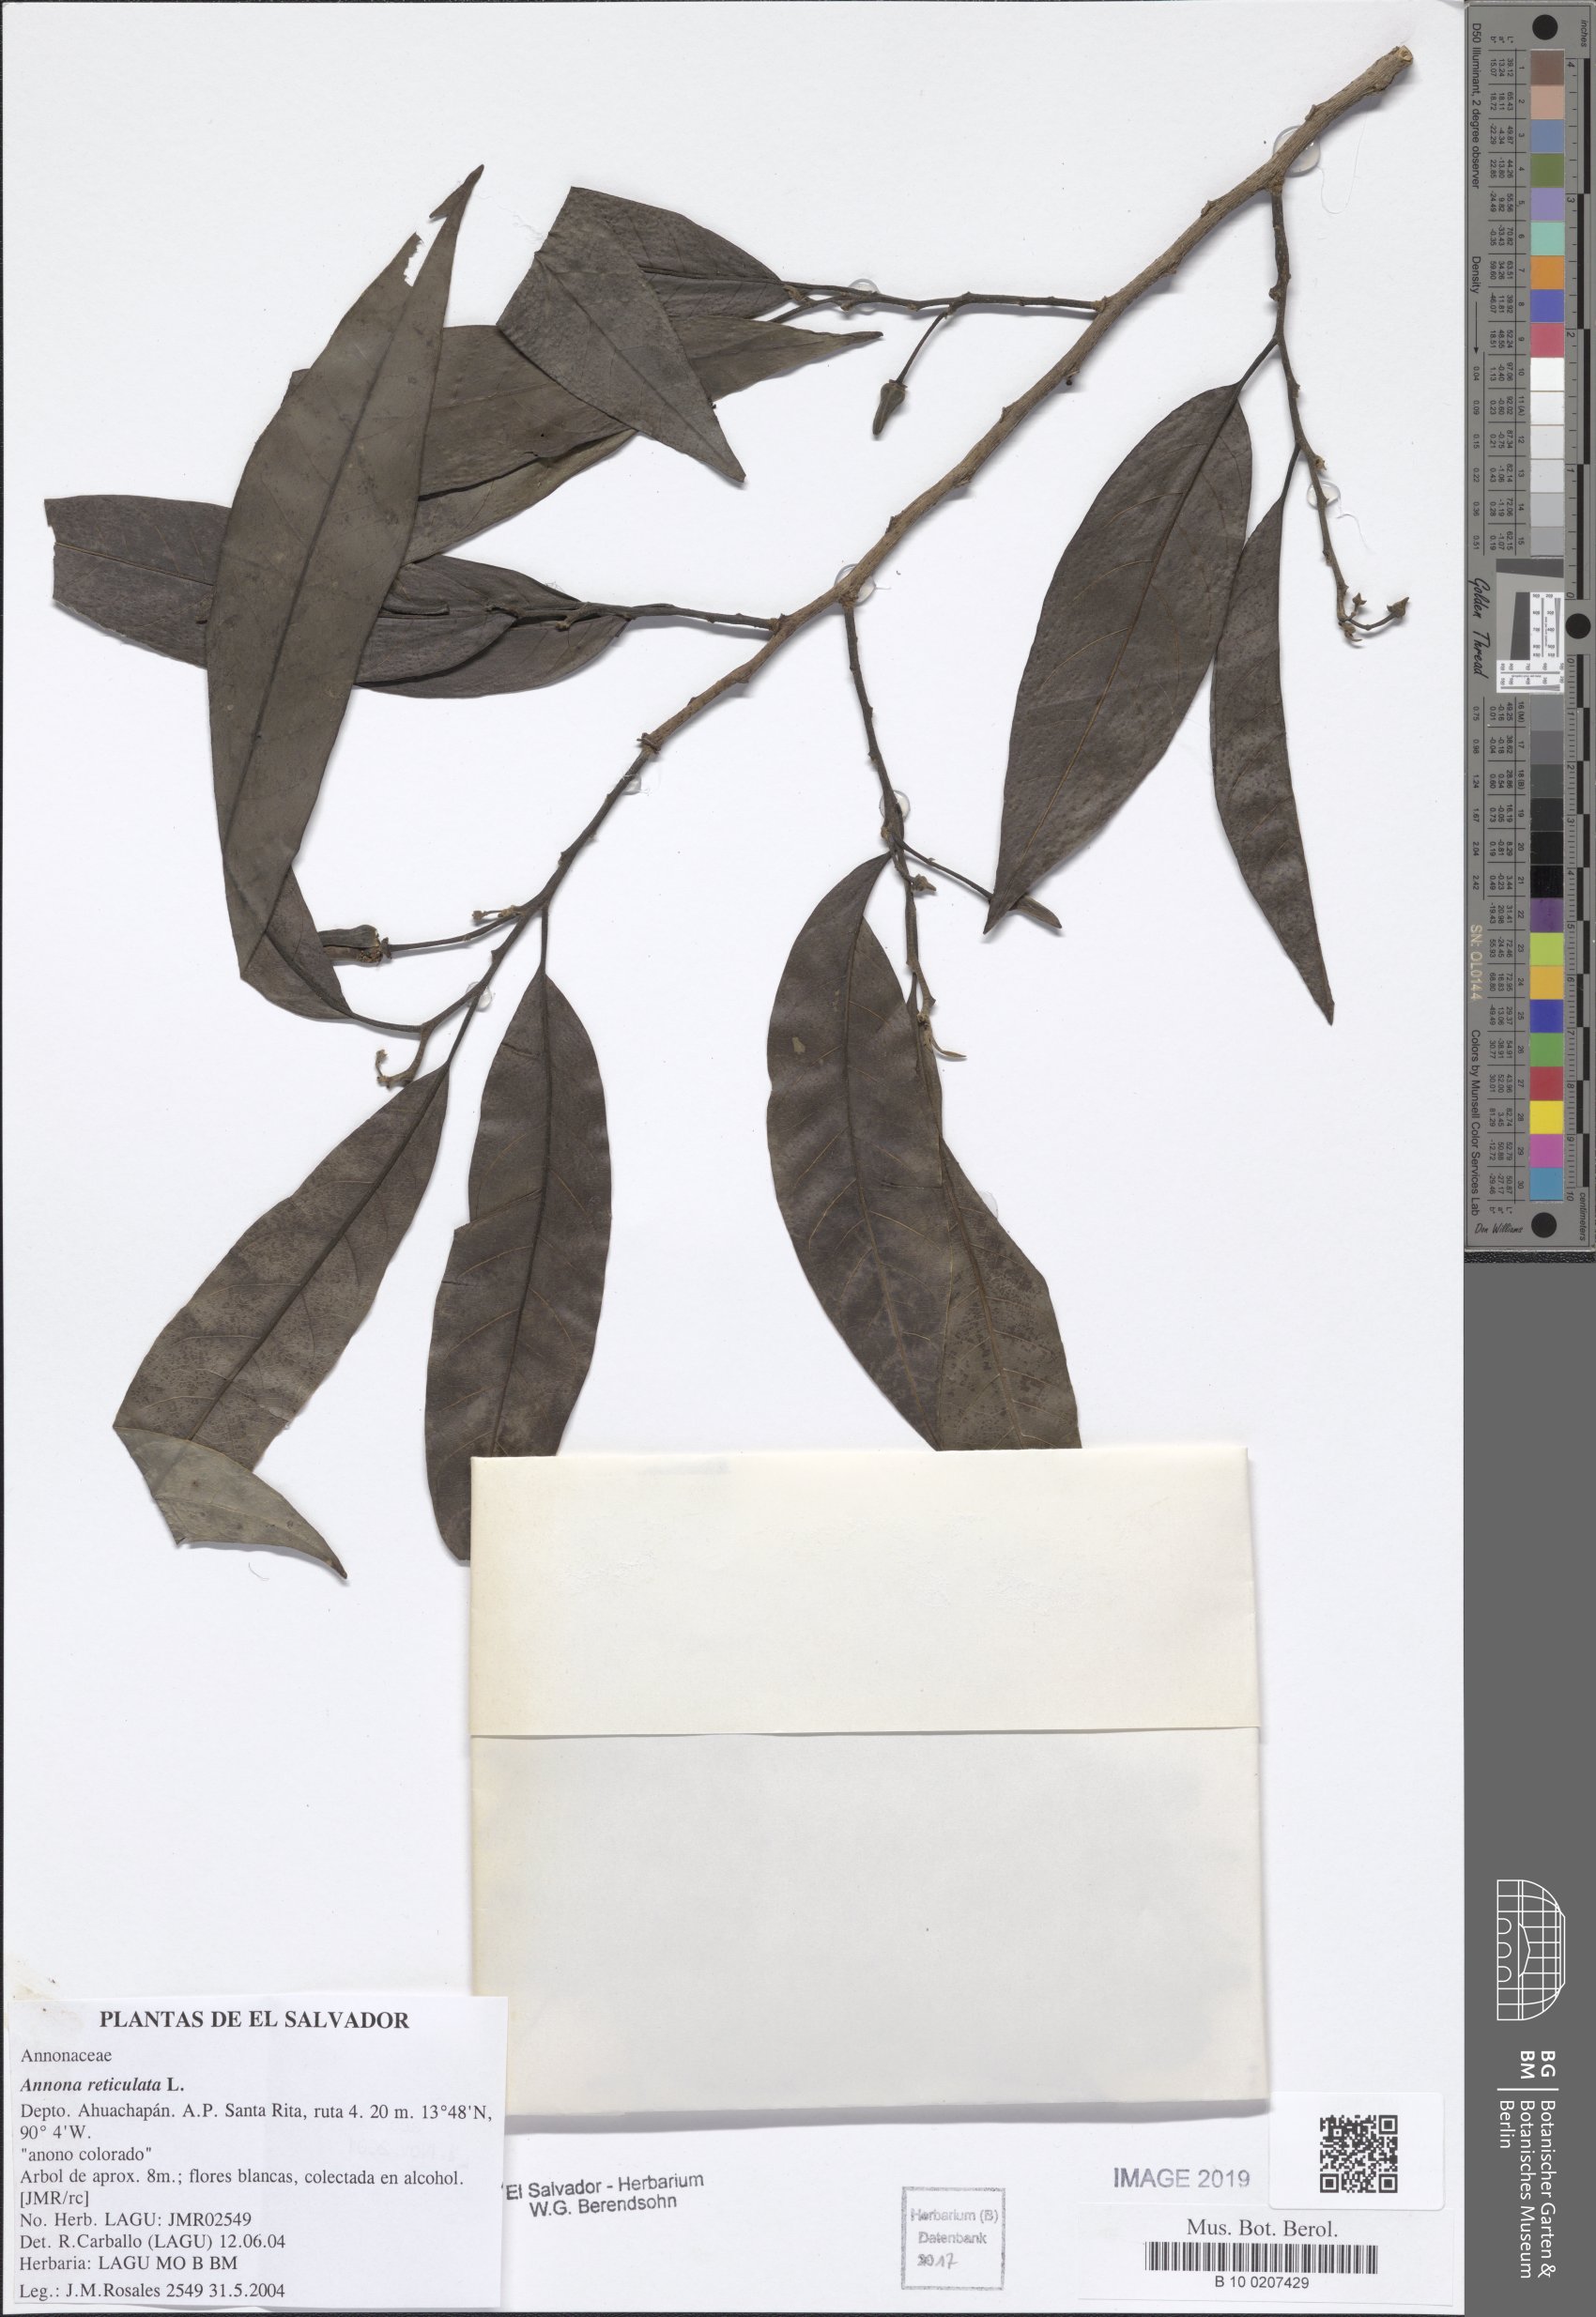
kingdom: Plantae
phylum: Tracheophyta
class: Magnoliopsida
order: Magnoliales
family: Annonaceae
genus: Annona
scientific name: Annona reticulata
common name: Custard apple
